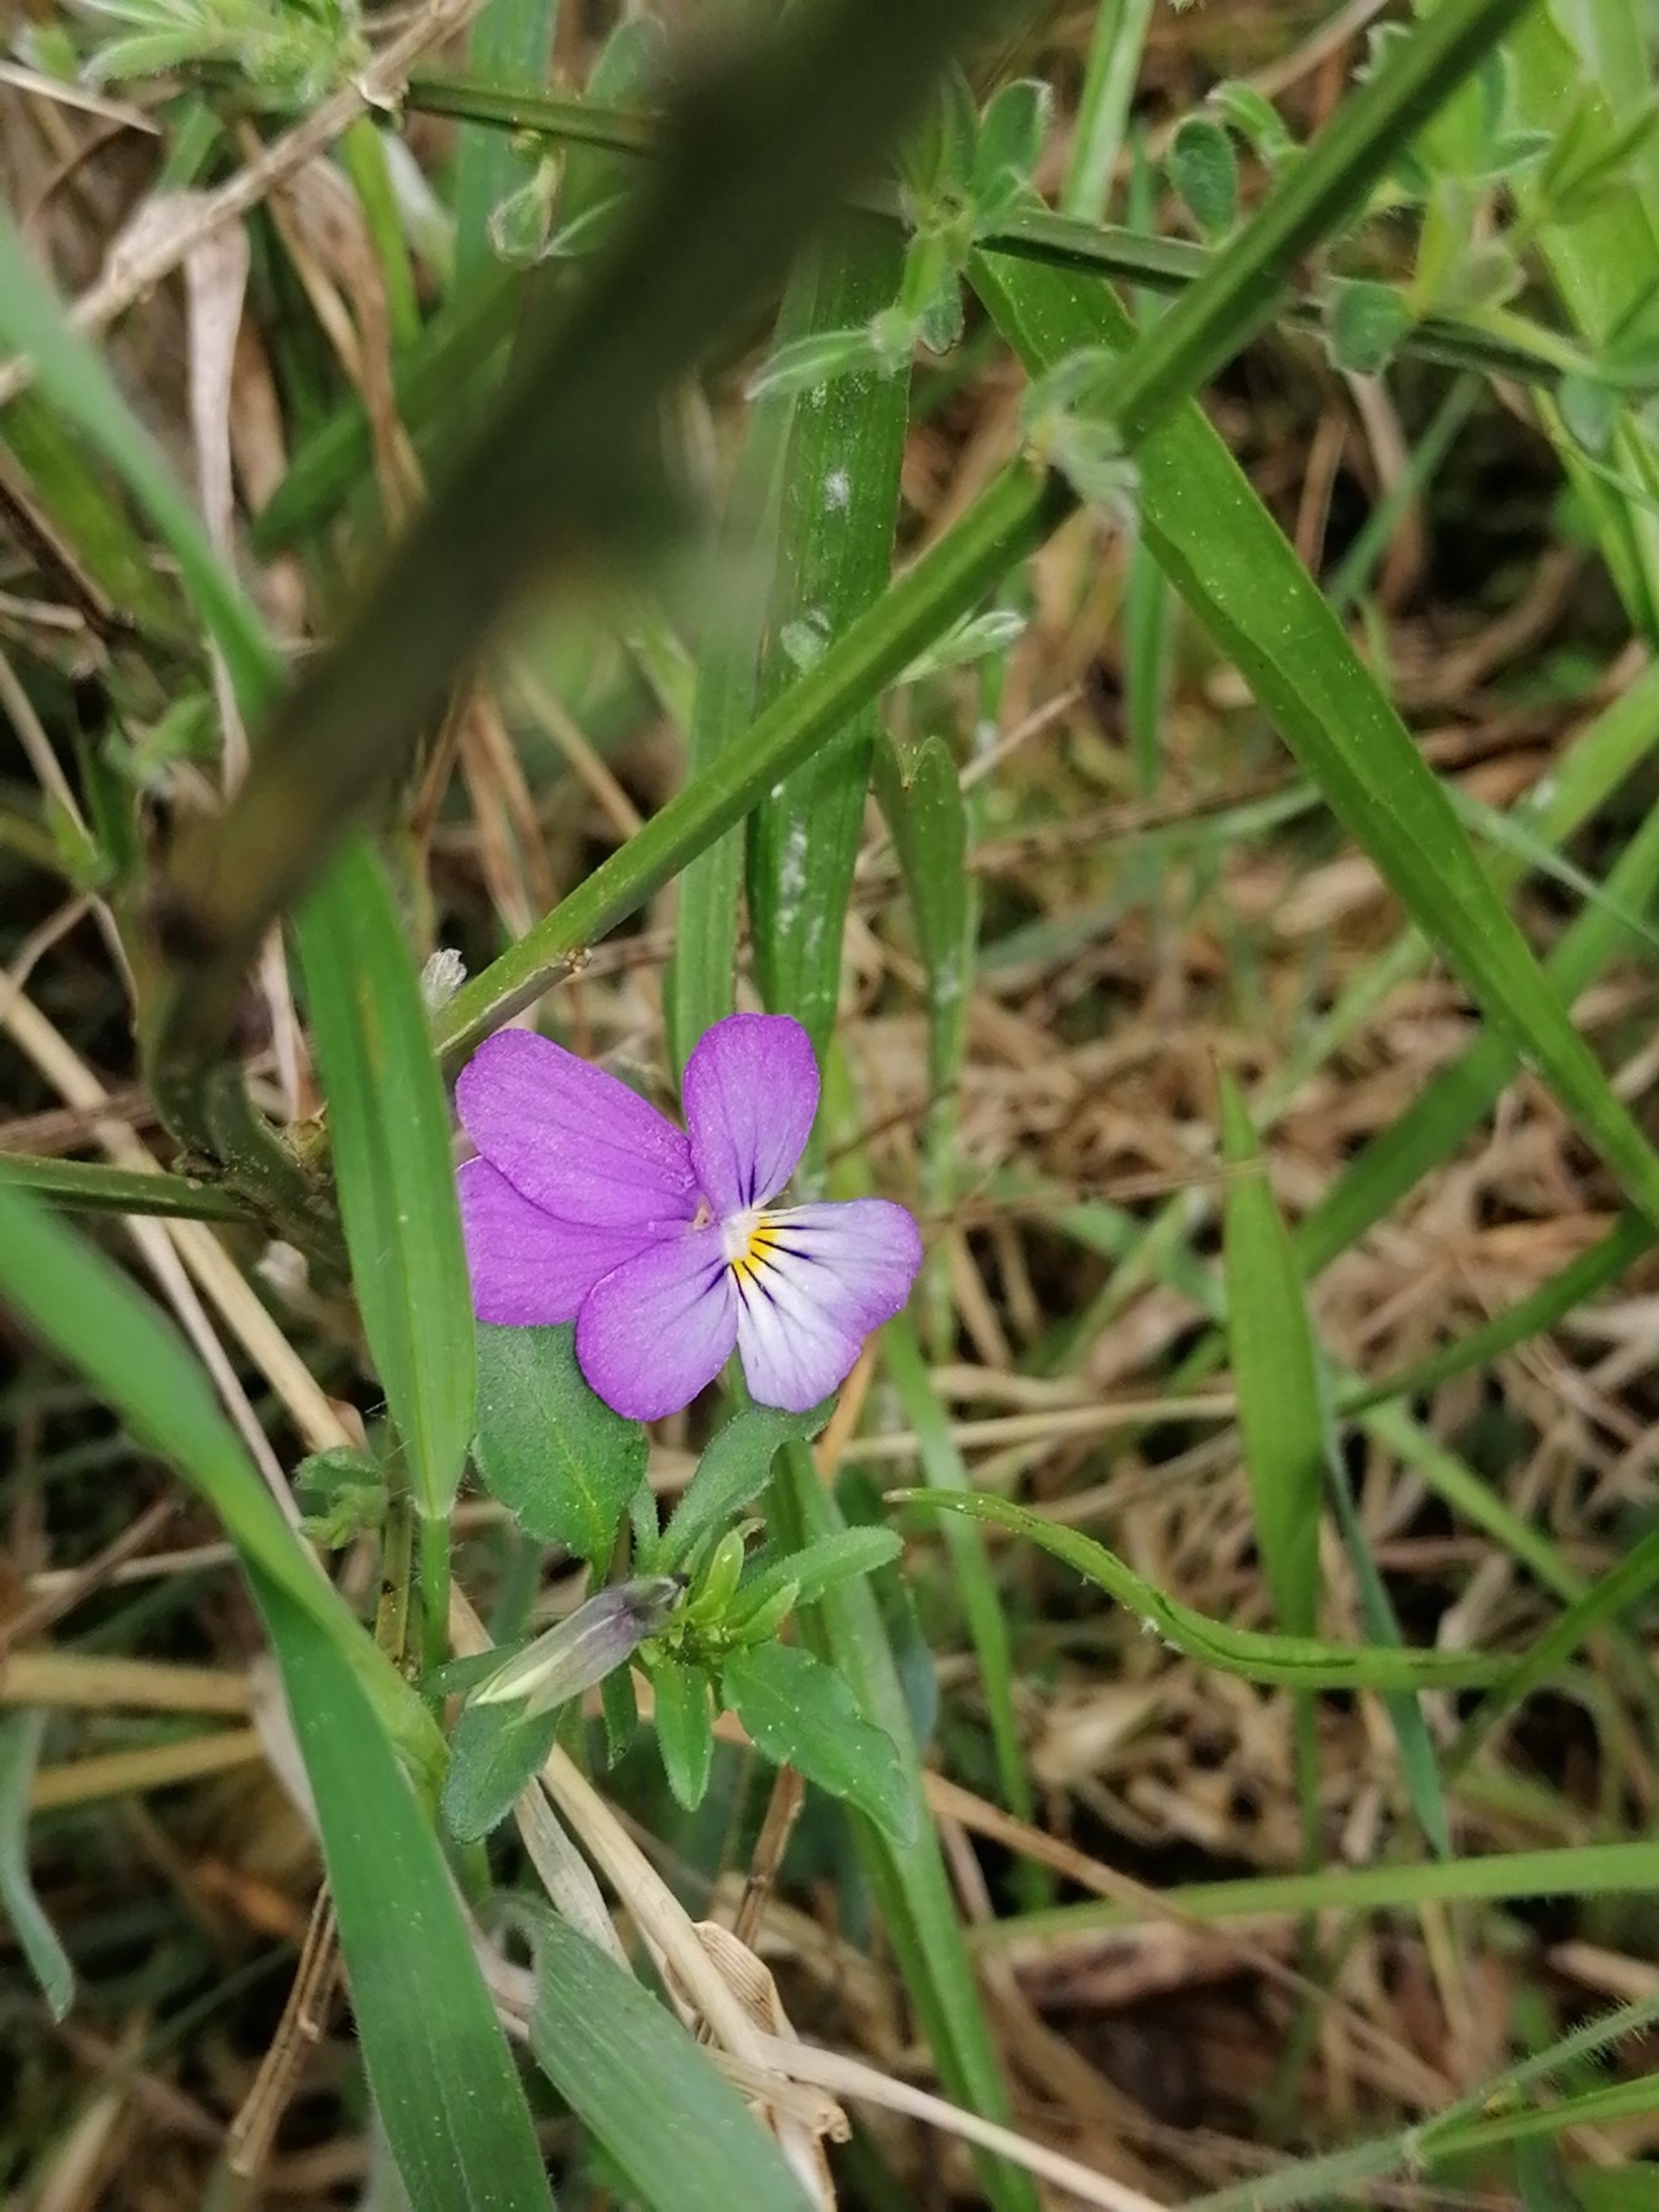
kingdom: Plantae
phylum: Tracheophyta
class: Magnoliopsida
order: Malpighiales
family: Violaceae
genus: Viola
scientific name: Viola tricolor
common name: Stedmoderblomst
